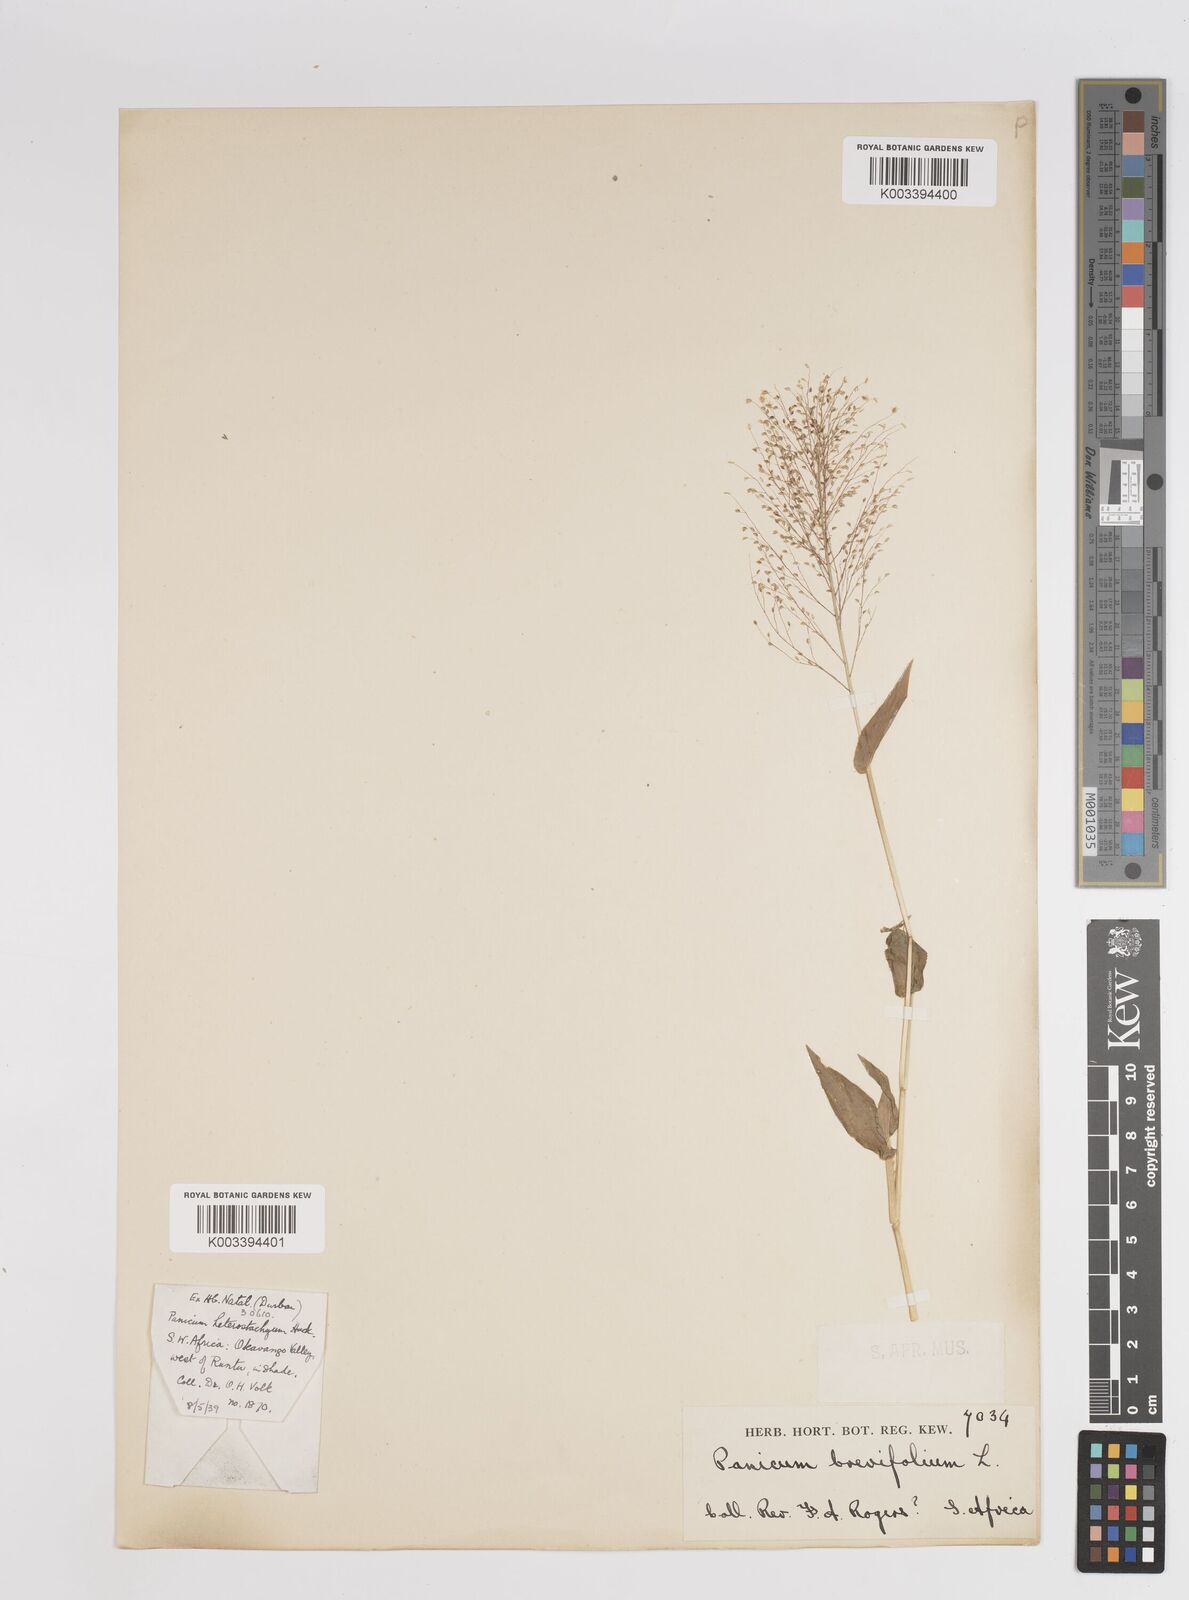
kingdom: Plantae
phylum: Tracheophyta
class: Liliopsida
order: Poales
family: Poaceae
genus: Panicum
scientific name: Panicum hirtum
